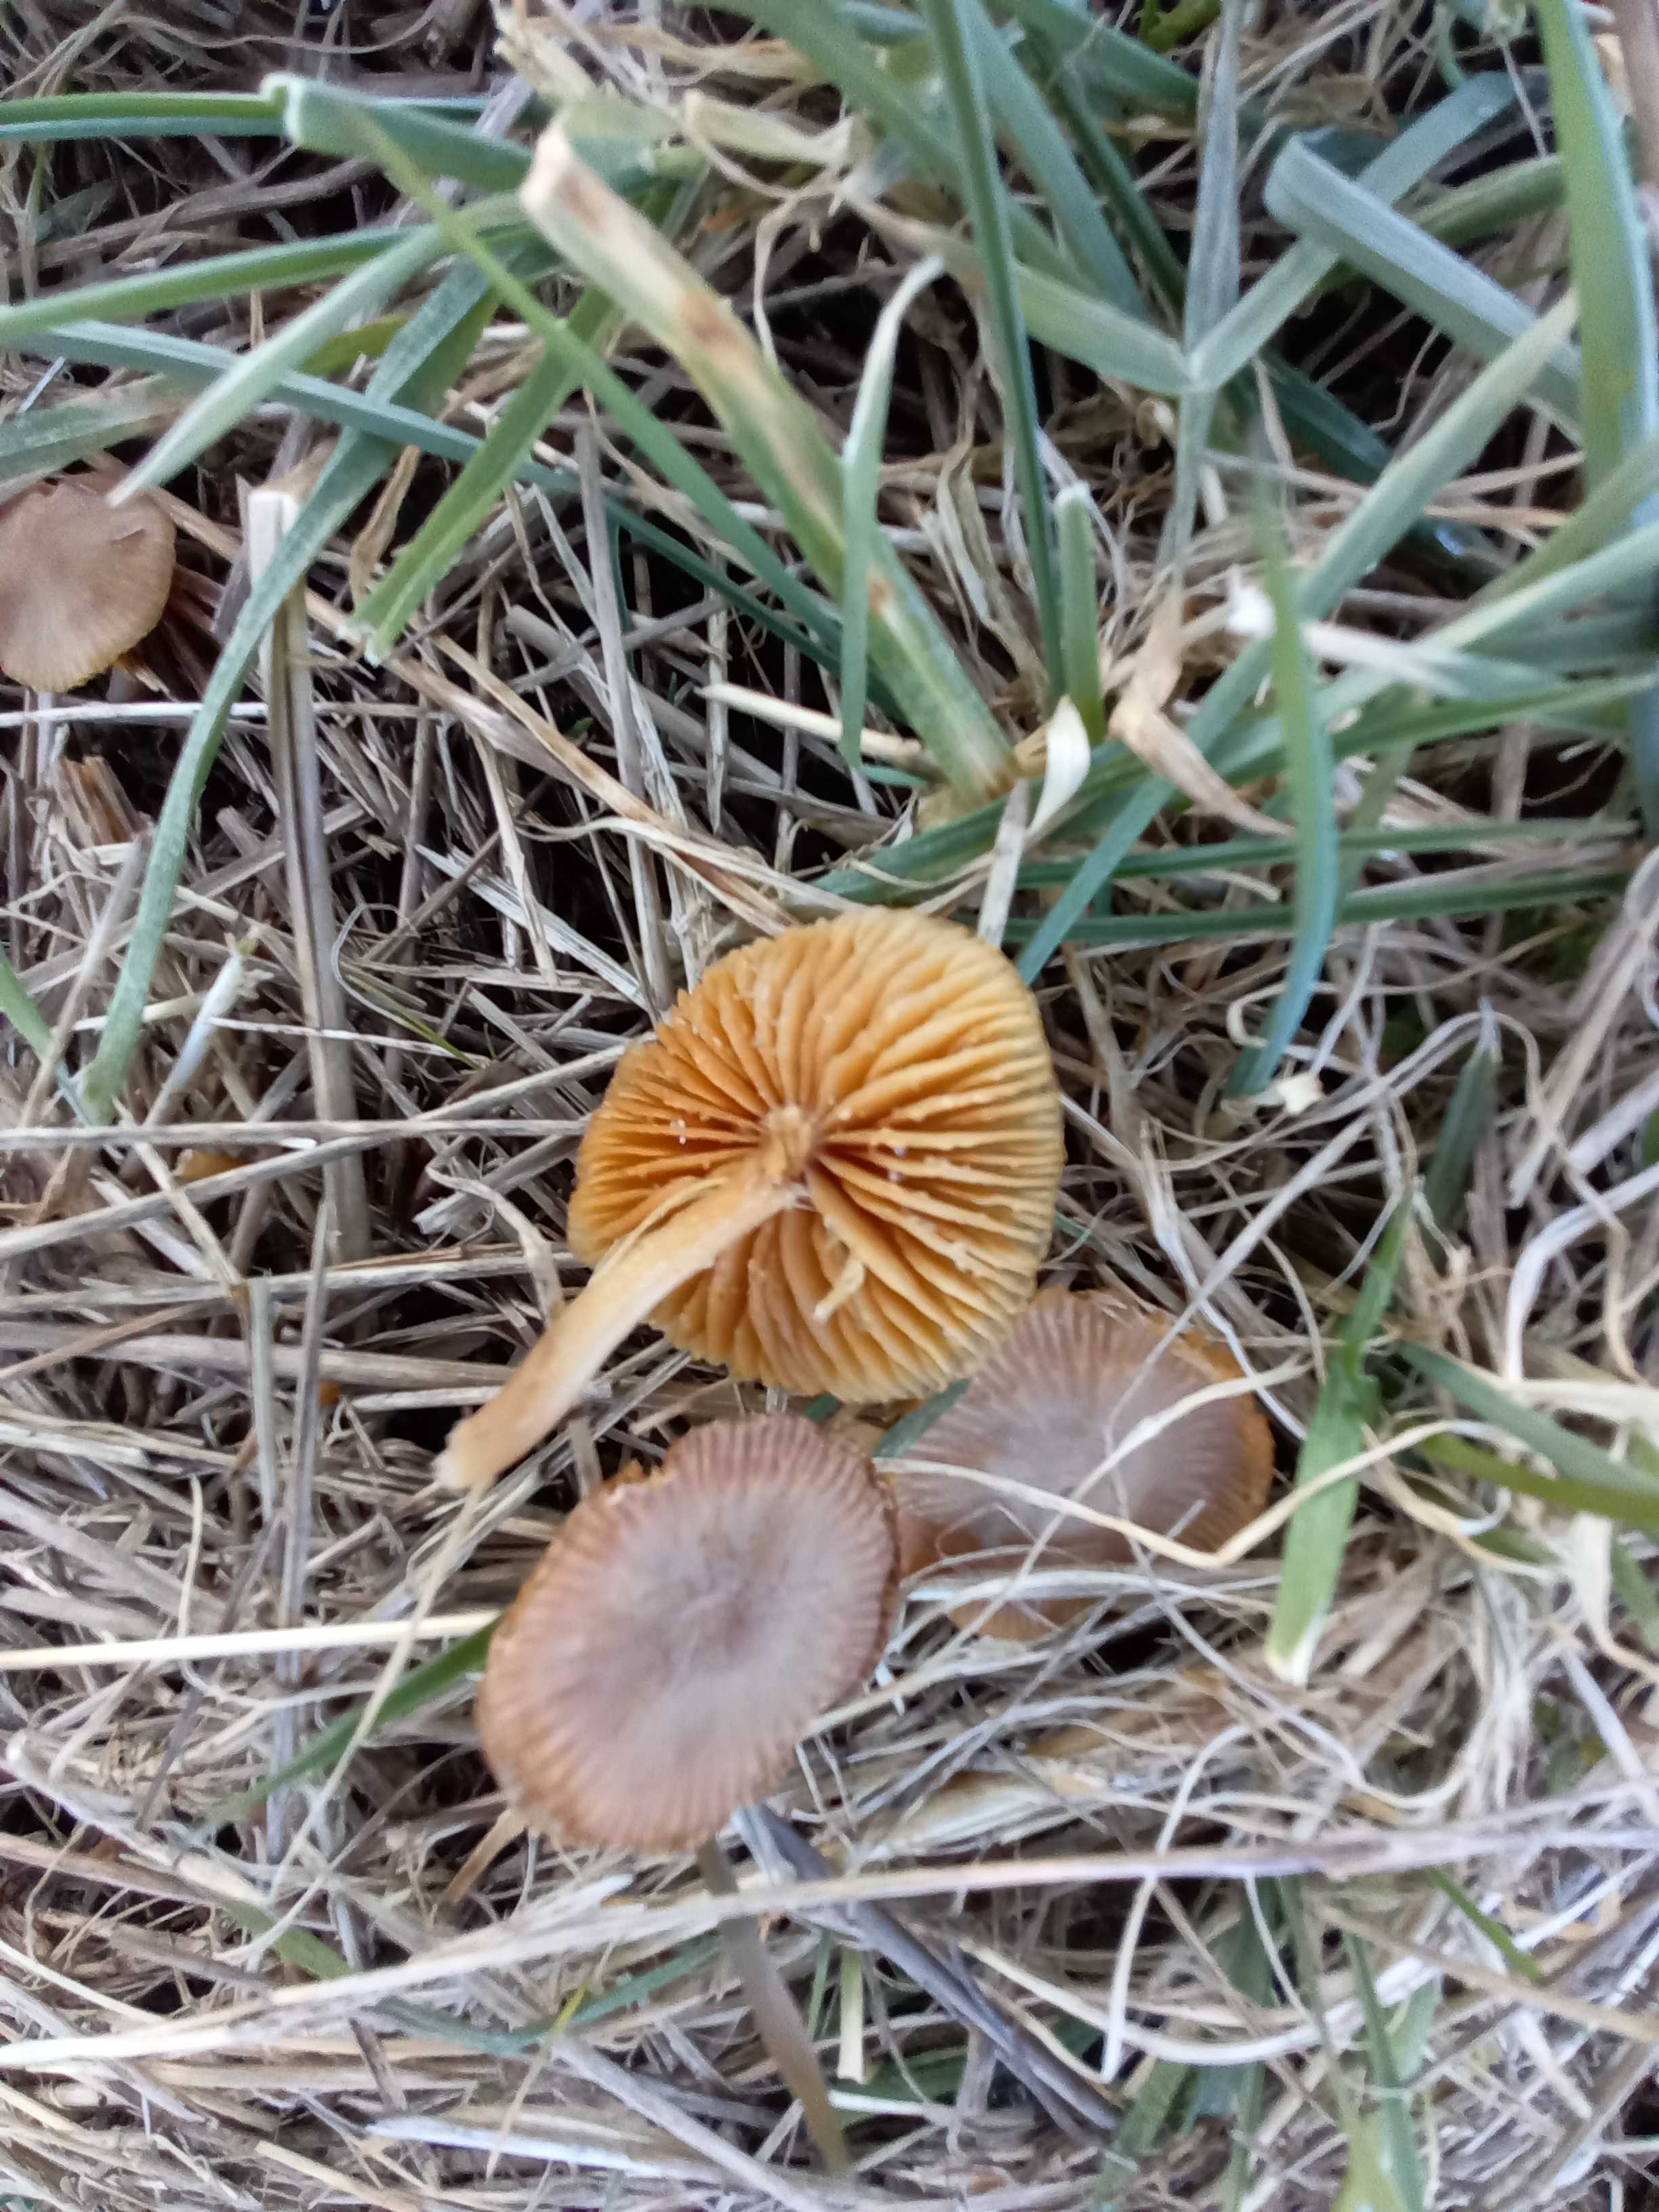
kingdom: Fungi
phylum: Basidiomycota
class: Agaricomycetes
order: Agaricales
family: Tubariaceae
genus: Tubaria
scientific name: Tubaria furfuracea
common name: kliddet fnughat
